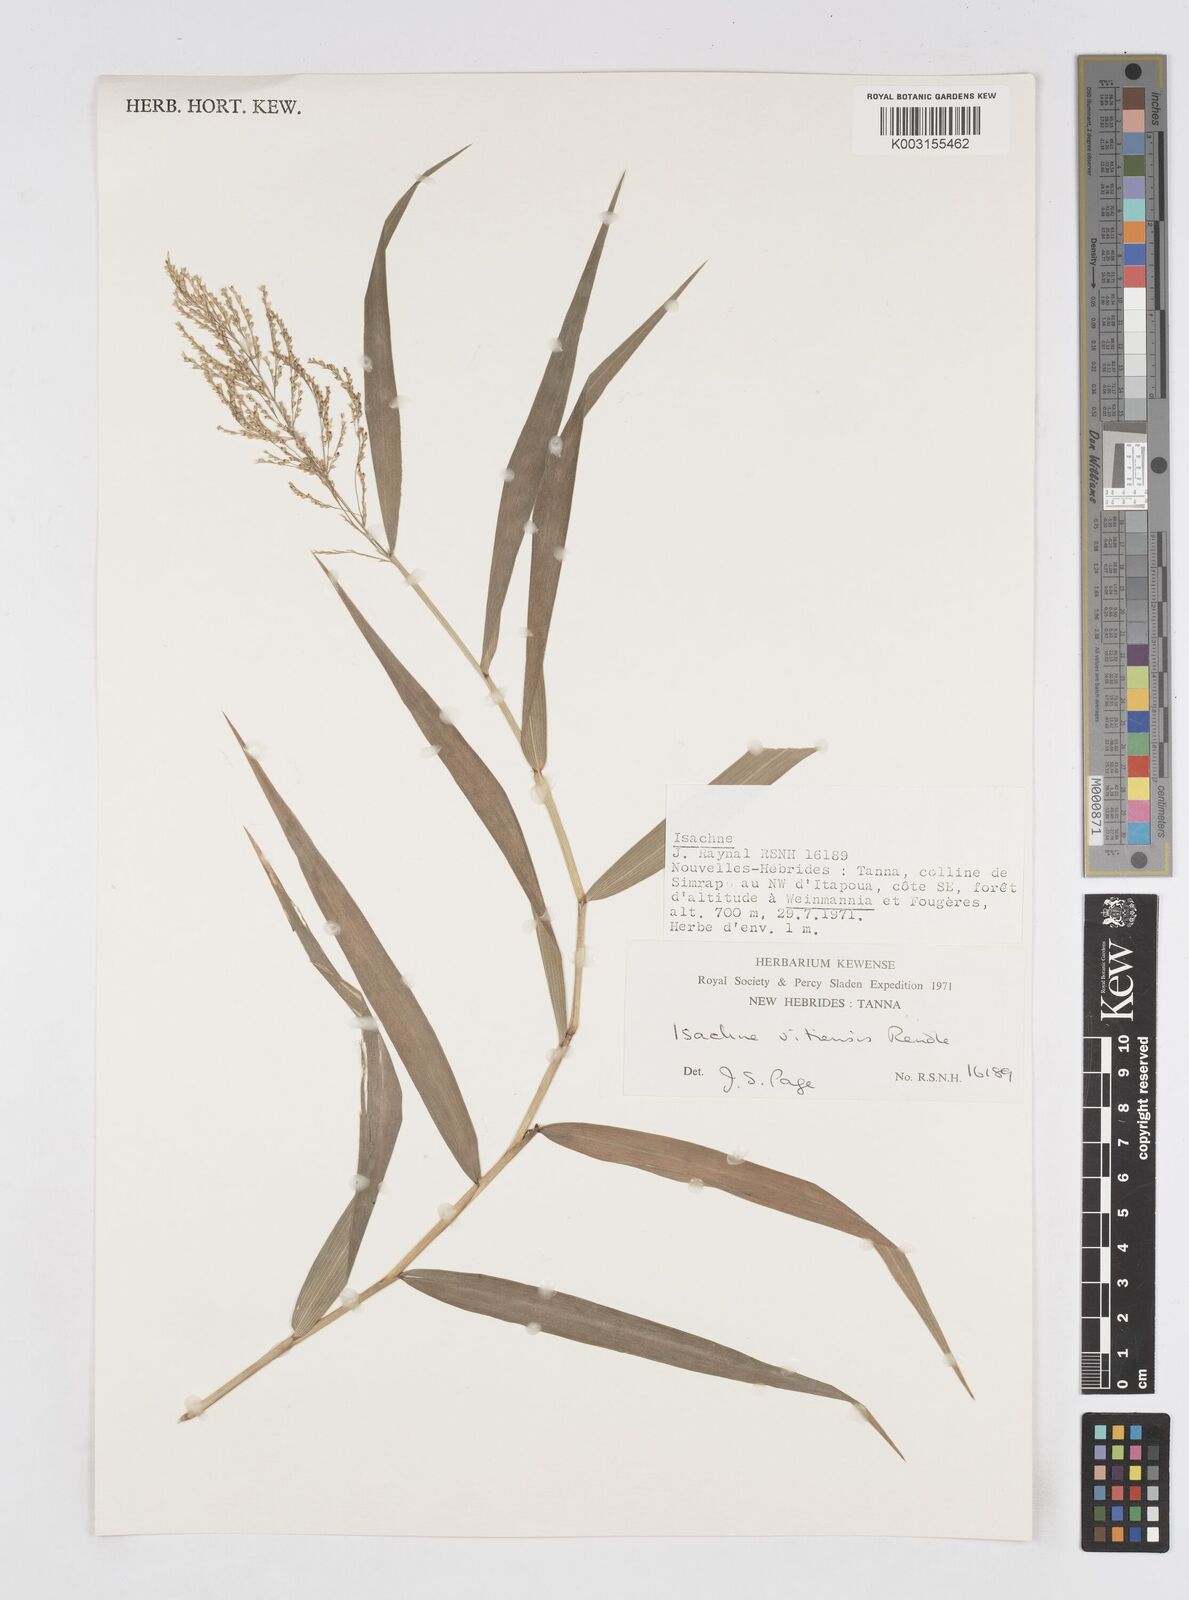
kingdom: Plantae
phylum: Tracheophyta
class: Liliopsida
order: Poales
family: Poaceae
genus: Isachne
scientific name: Isachne vitiensis
